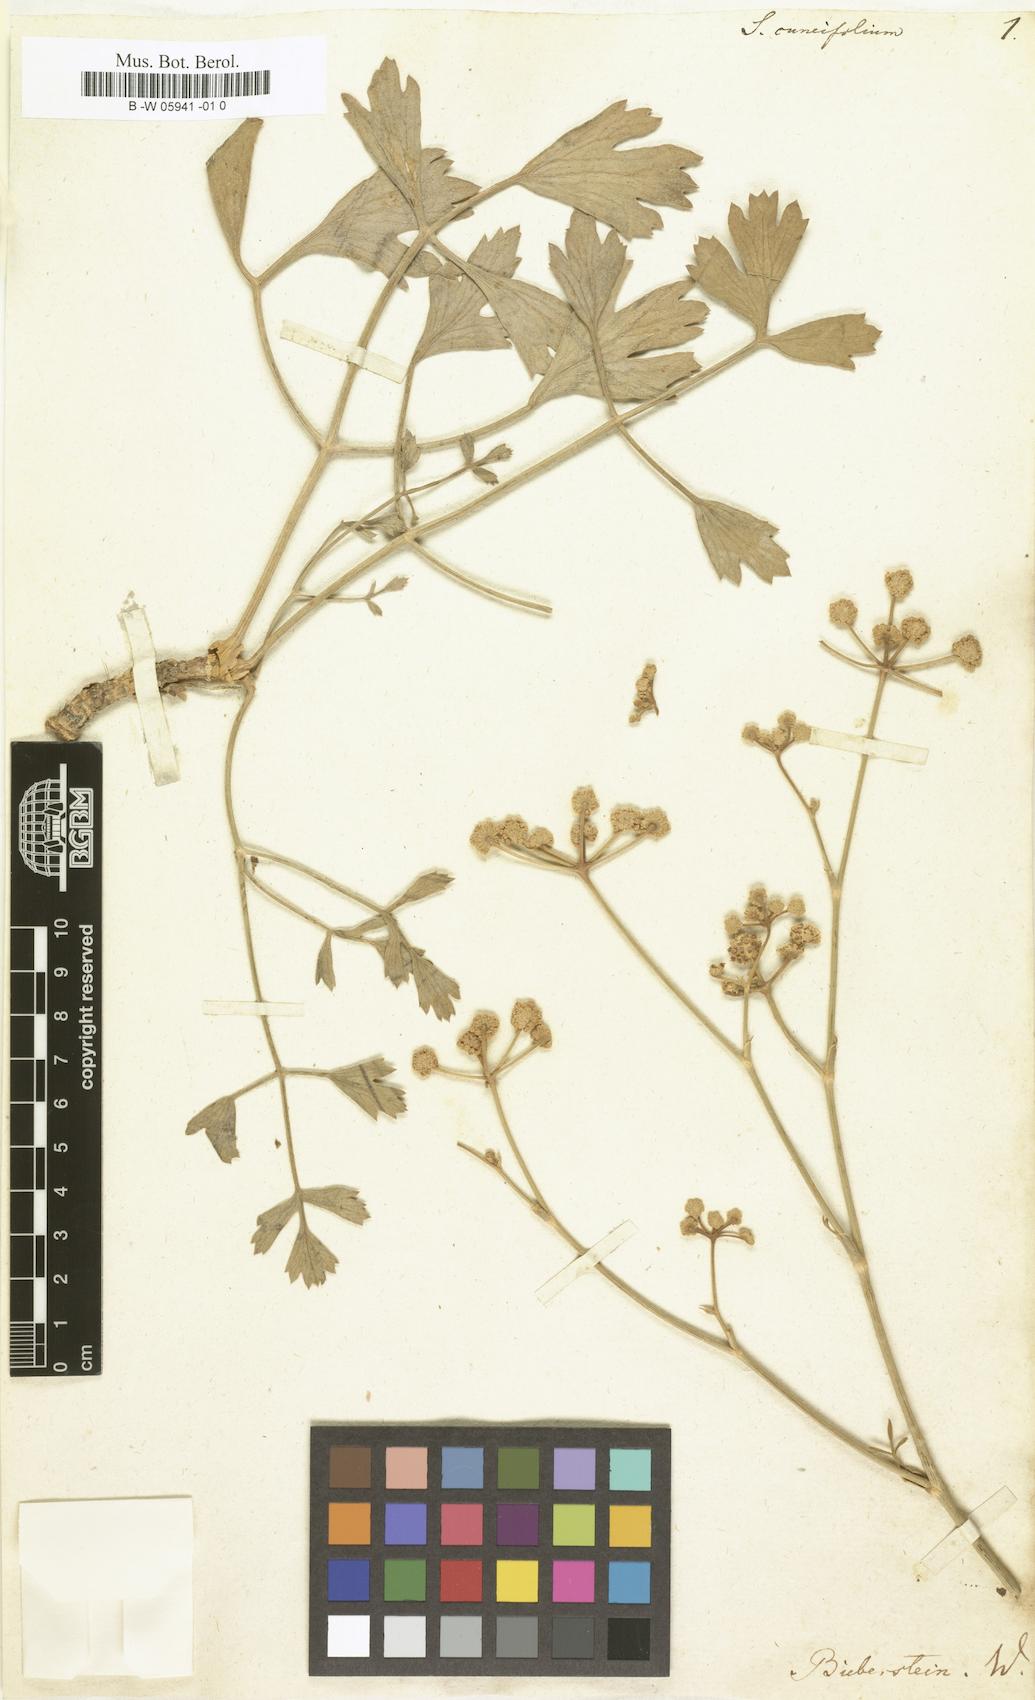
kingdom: Plantae
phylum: Tracheophyta
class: Magnoliopsida
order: Apiales
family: Apiaceae
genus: Seseli
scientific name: Seseli cuneifolium
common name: Wedge-leaved meadow saxifrage
